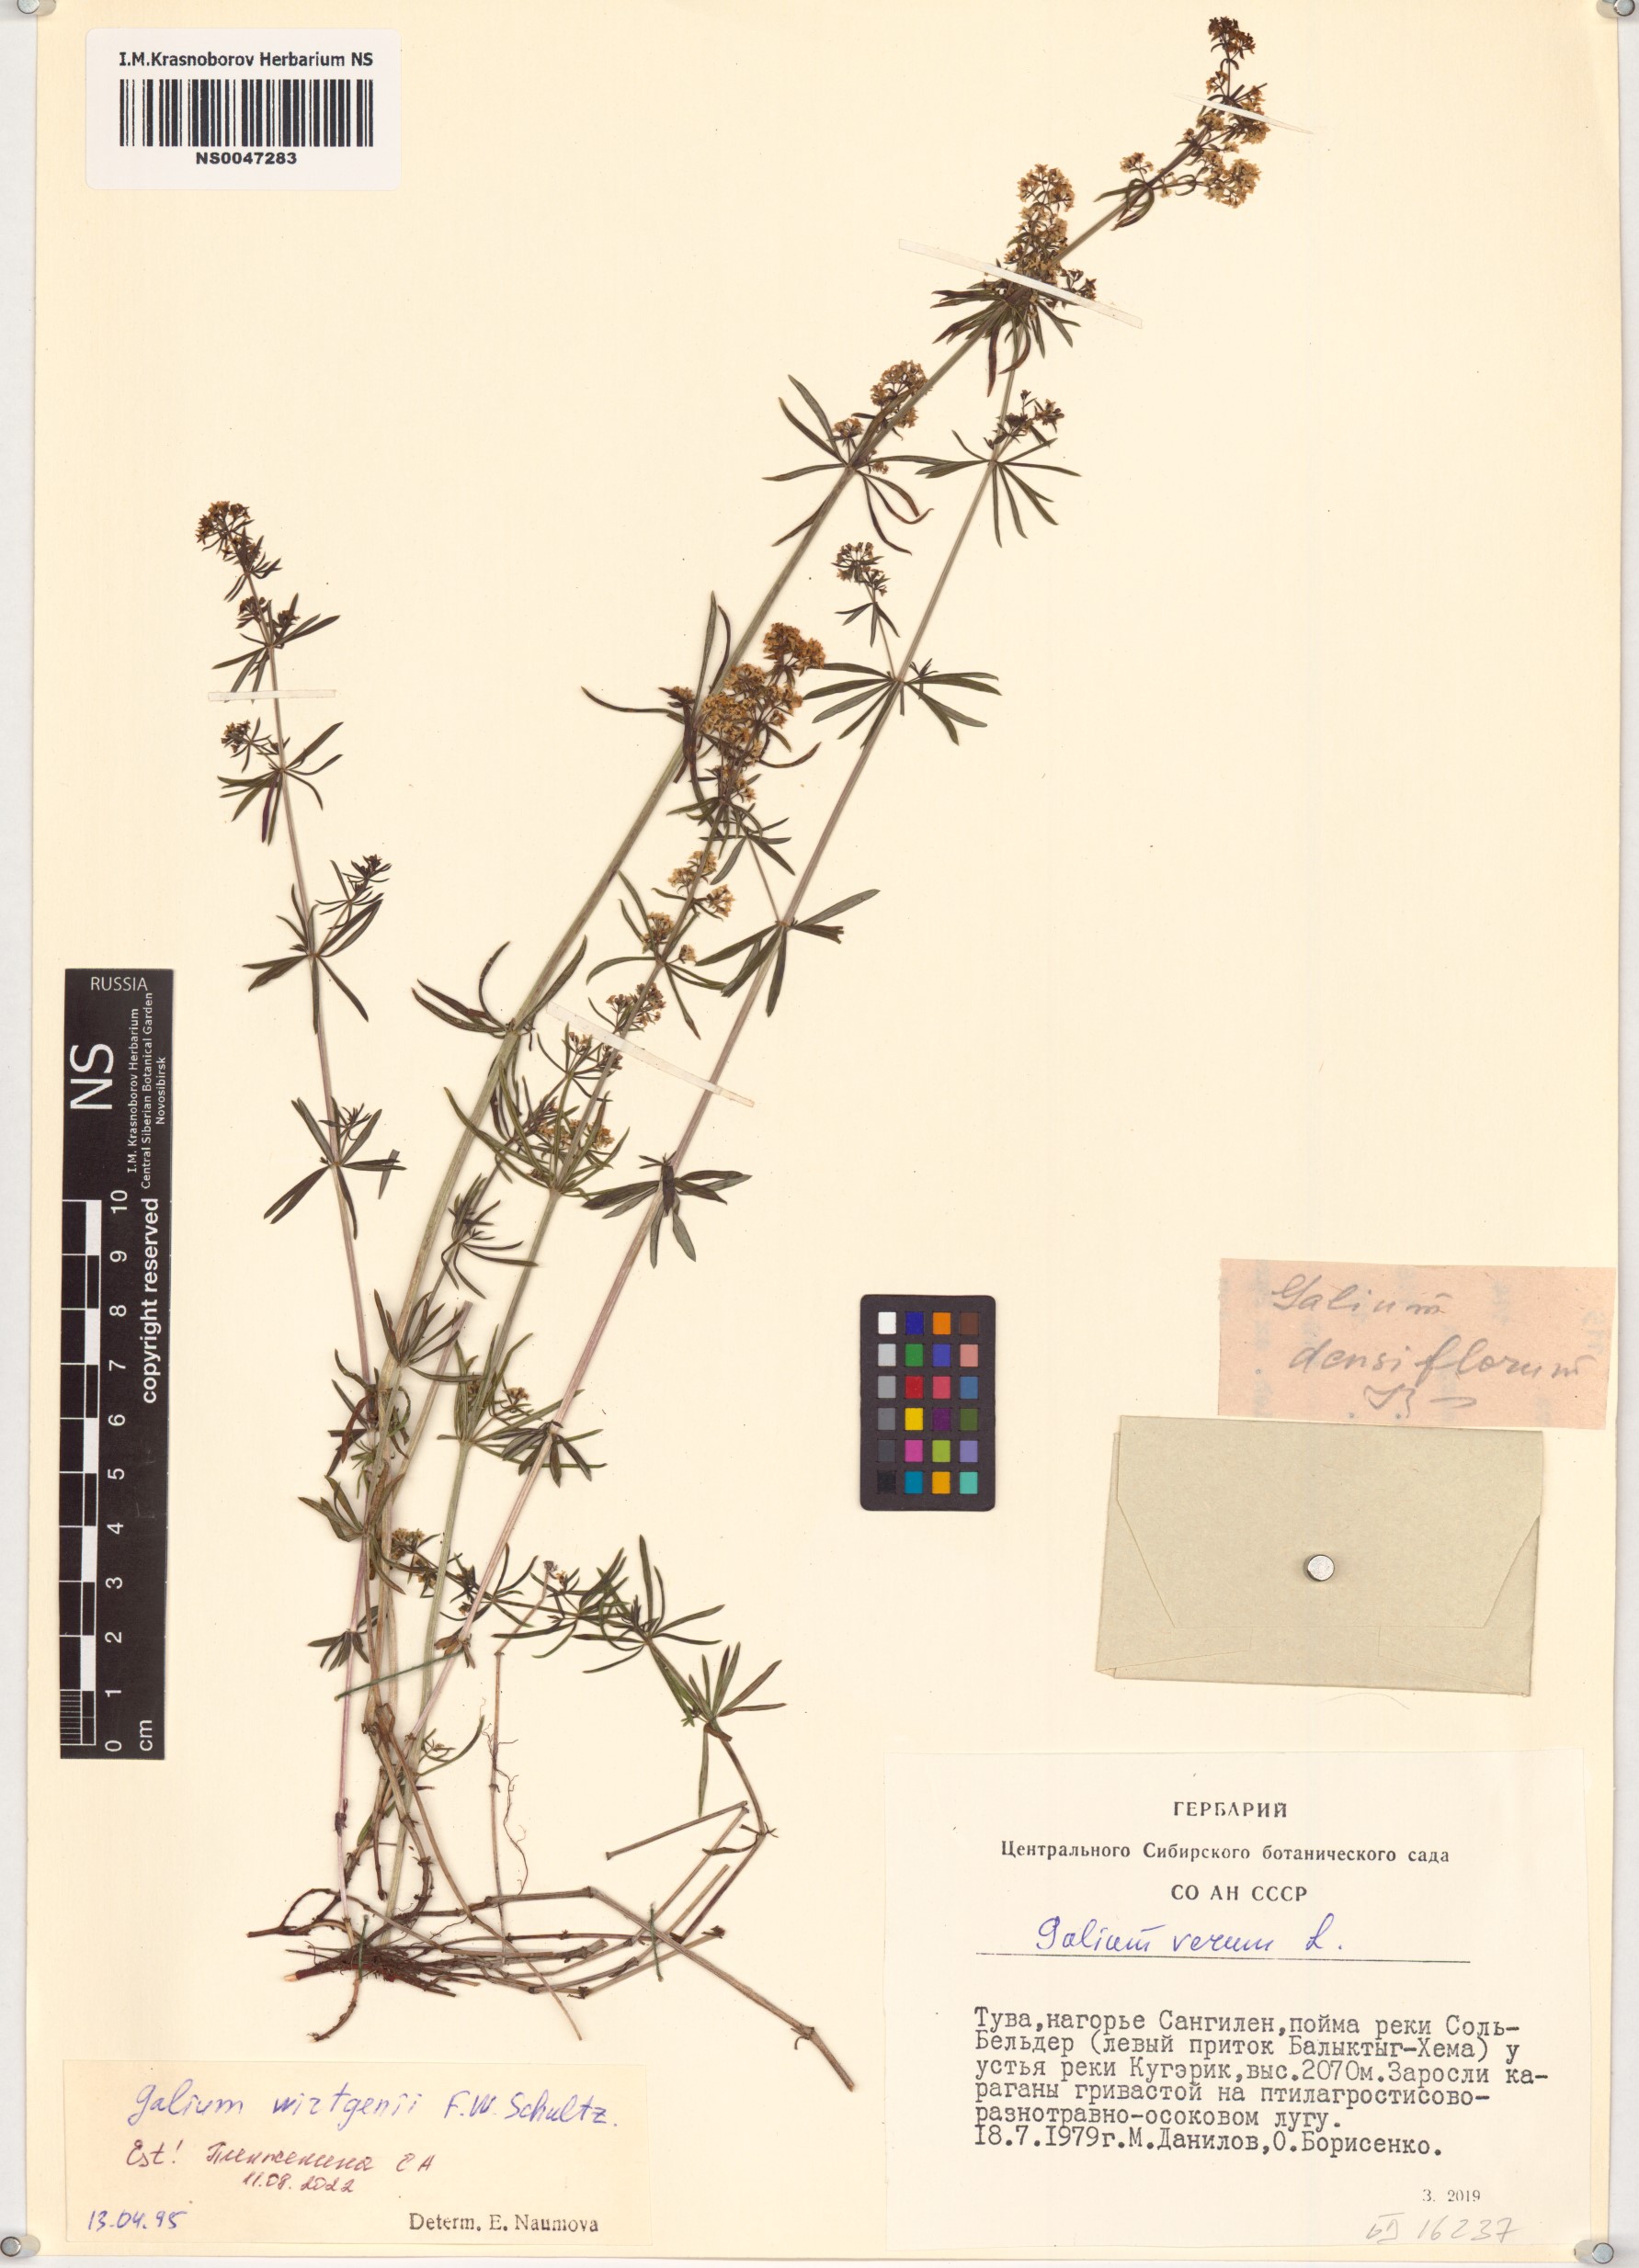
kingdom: Plantae
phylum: Tracheophyta
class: Magnoliopsida
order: Gentianales
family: Rubiaceae
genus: Galium
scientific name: Galium densiflorum
